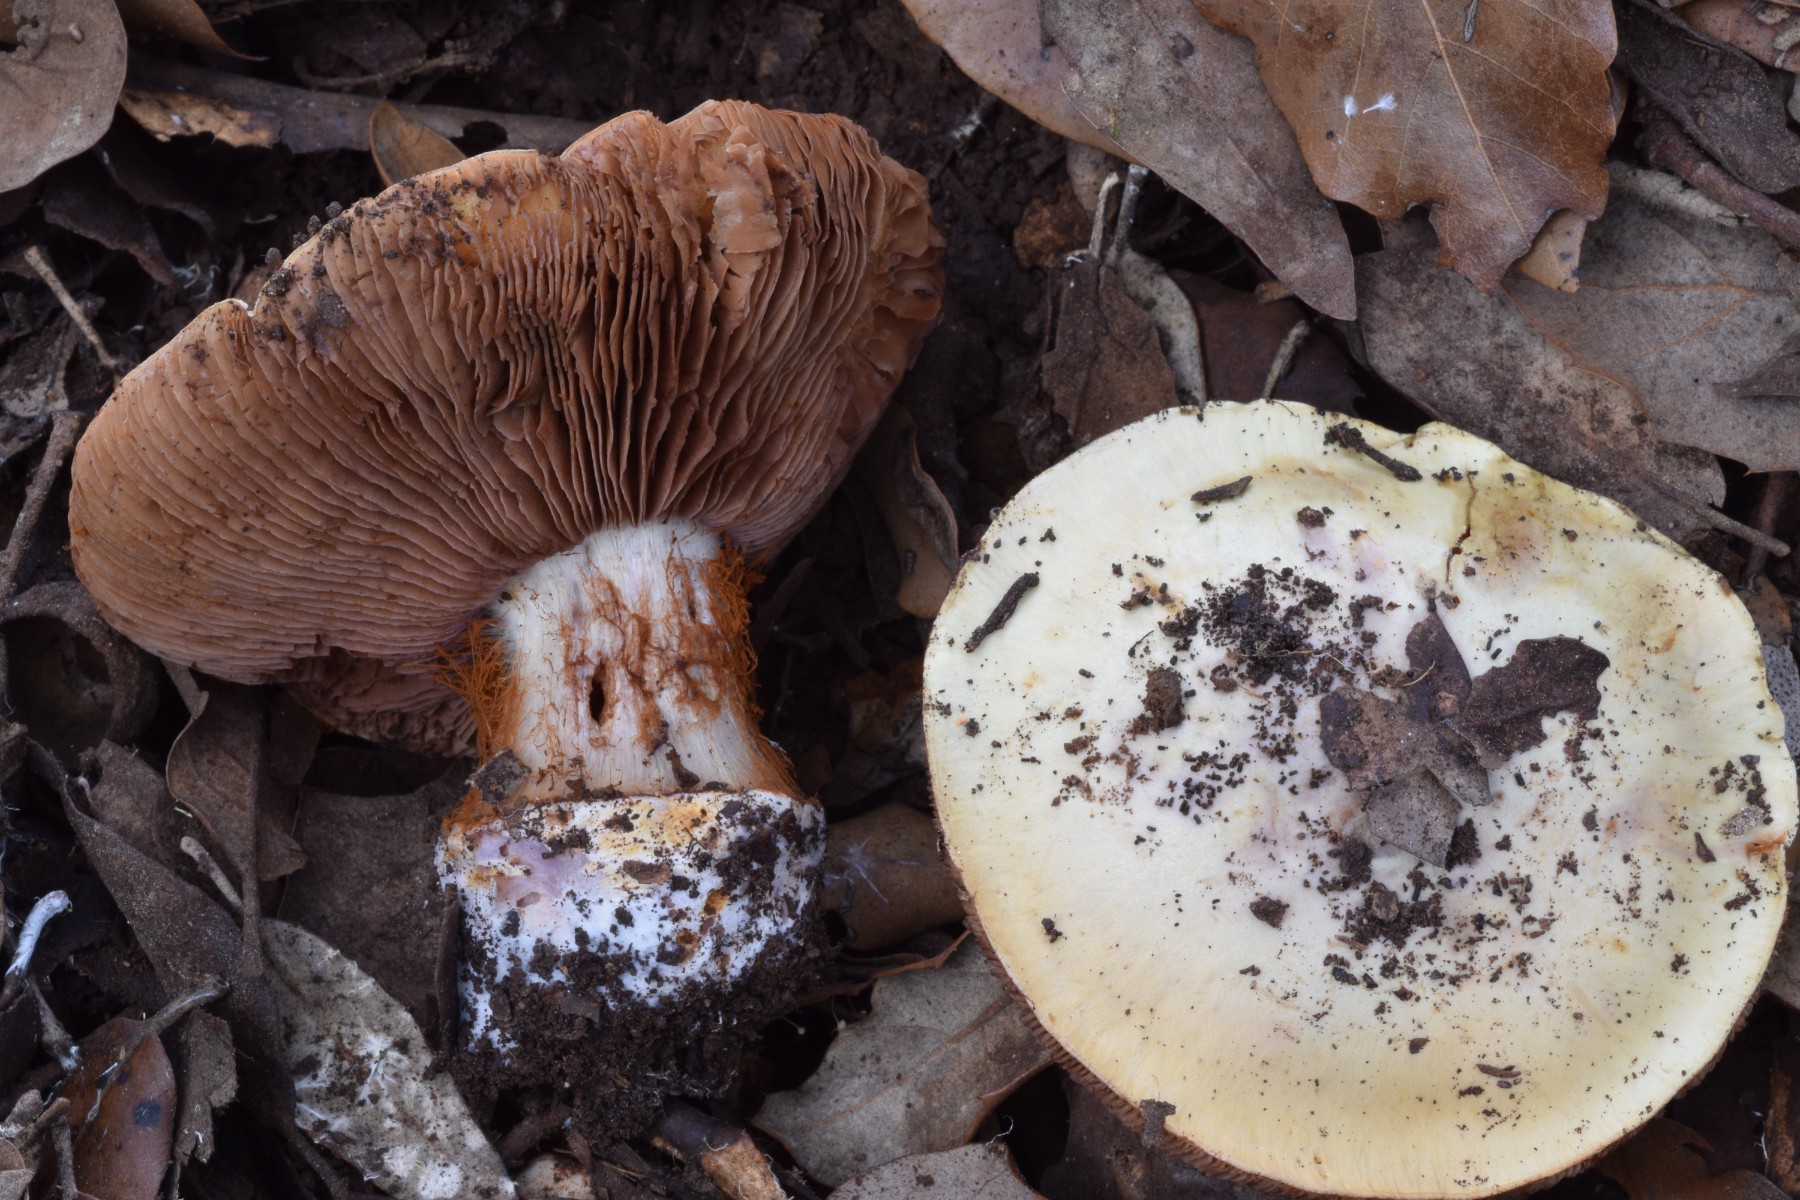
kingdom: Fungi
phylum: Basidiomycota
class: Agaricomycetes
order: Agaricales
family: Cortinariaceae
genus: Calonarius
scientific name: Calonarius lavandulochlorus
